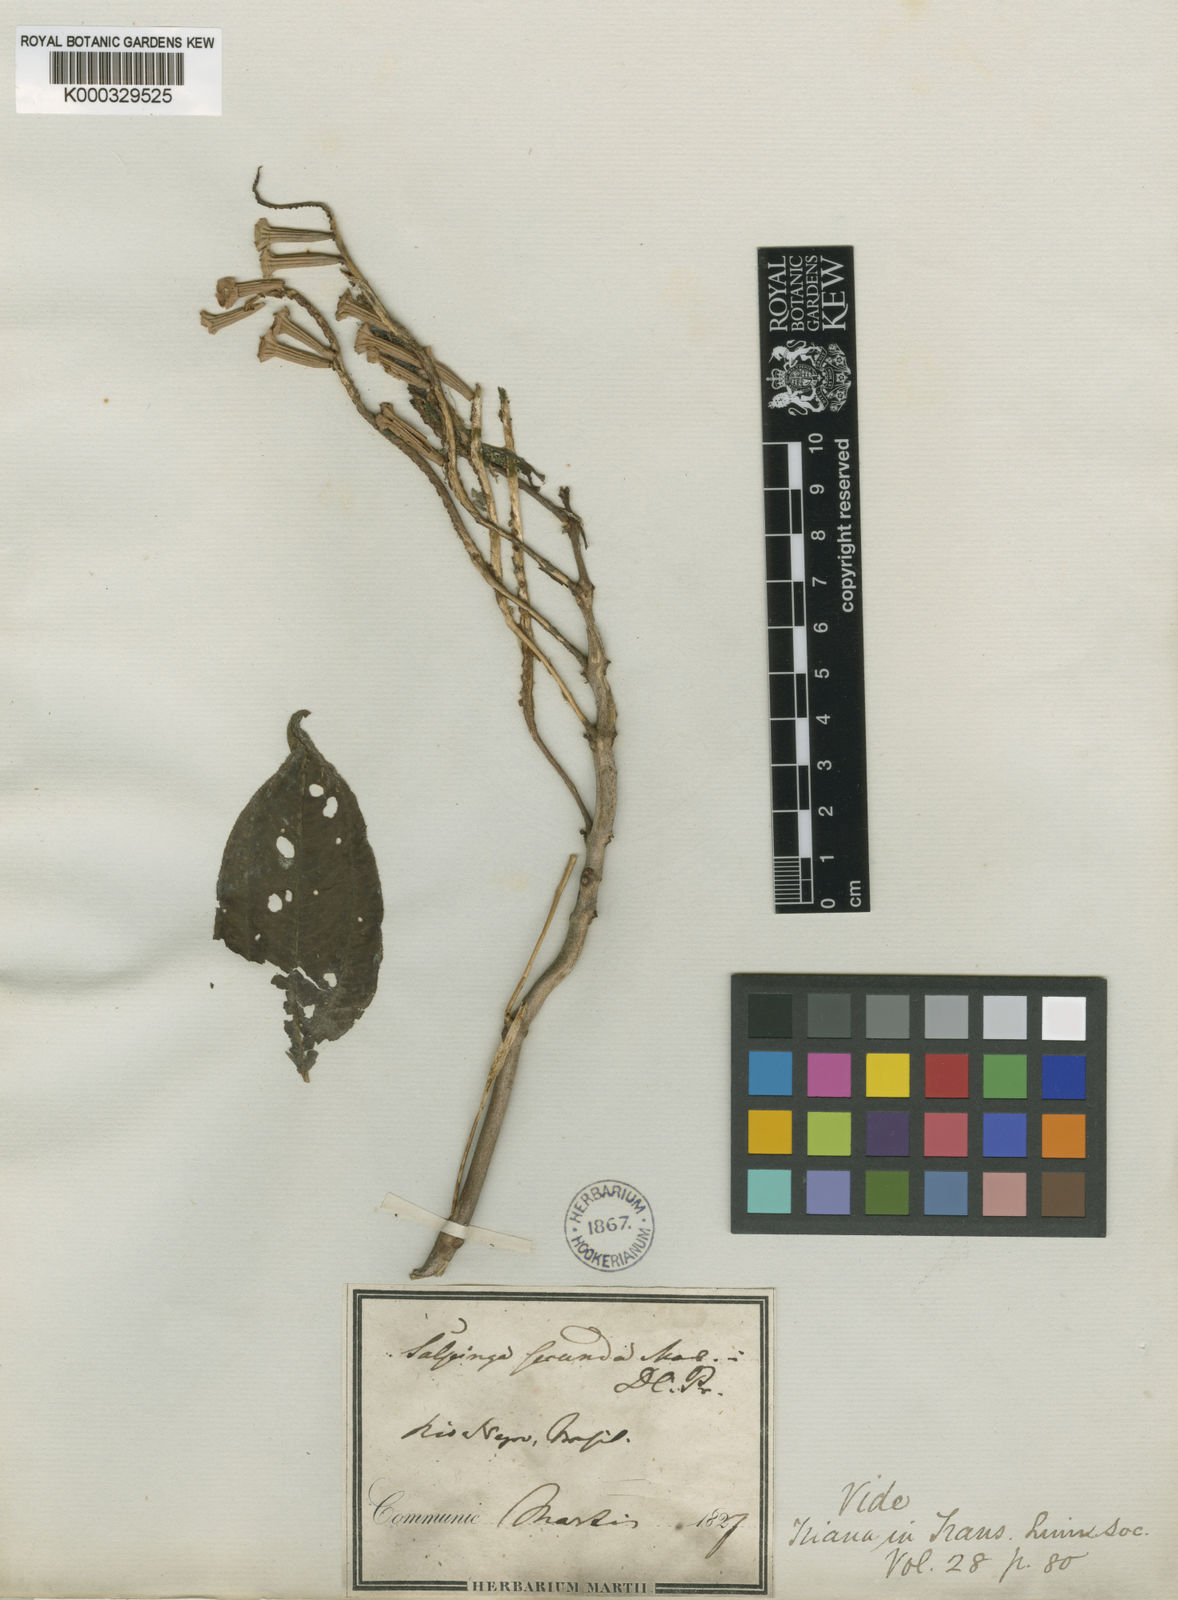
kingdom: Plantae
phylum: Tracheophyta
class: Magnoliopsida
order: Myrtales
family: Melastomataceae
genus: Salpinga
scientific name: Salpinga secunda
